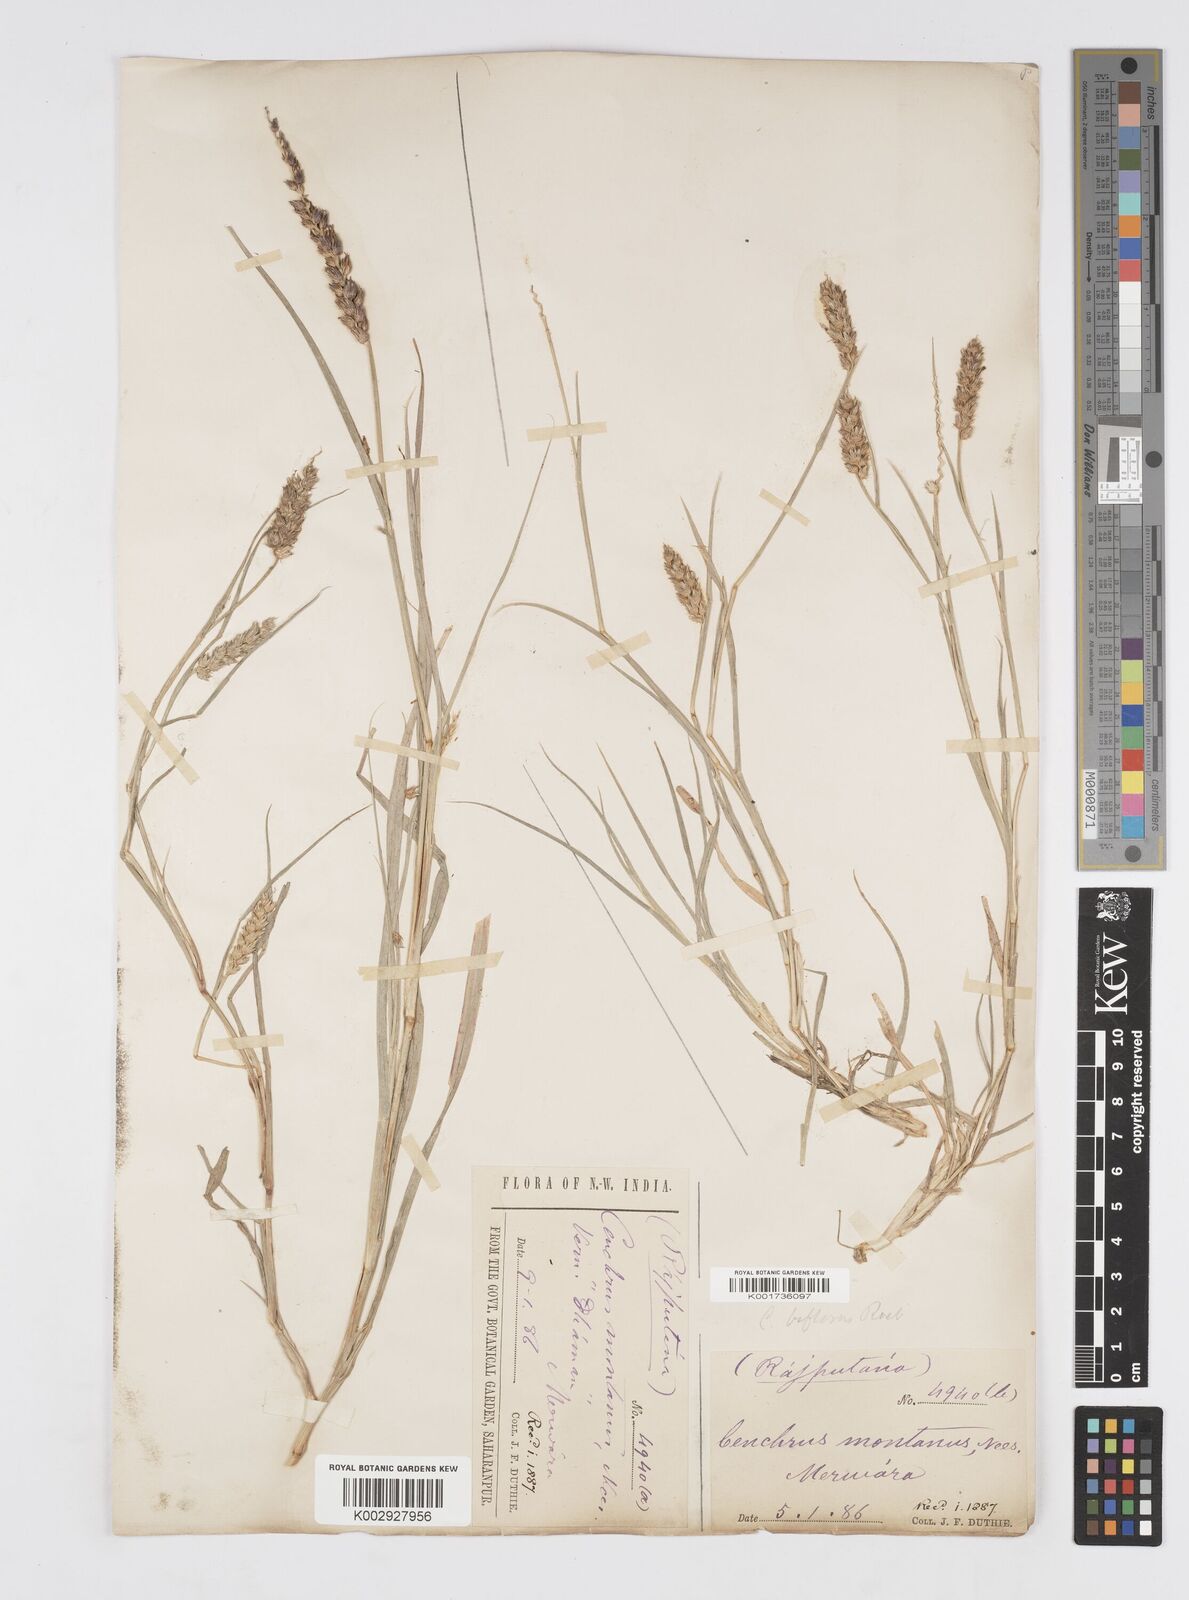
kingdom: Plantae
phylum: Tracheophyta
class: Liliopsida
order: Poales
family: Poaceae
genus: Cenchrus
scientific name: Cenchrus setigerus
